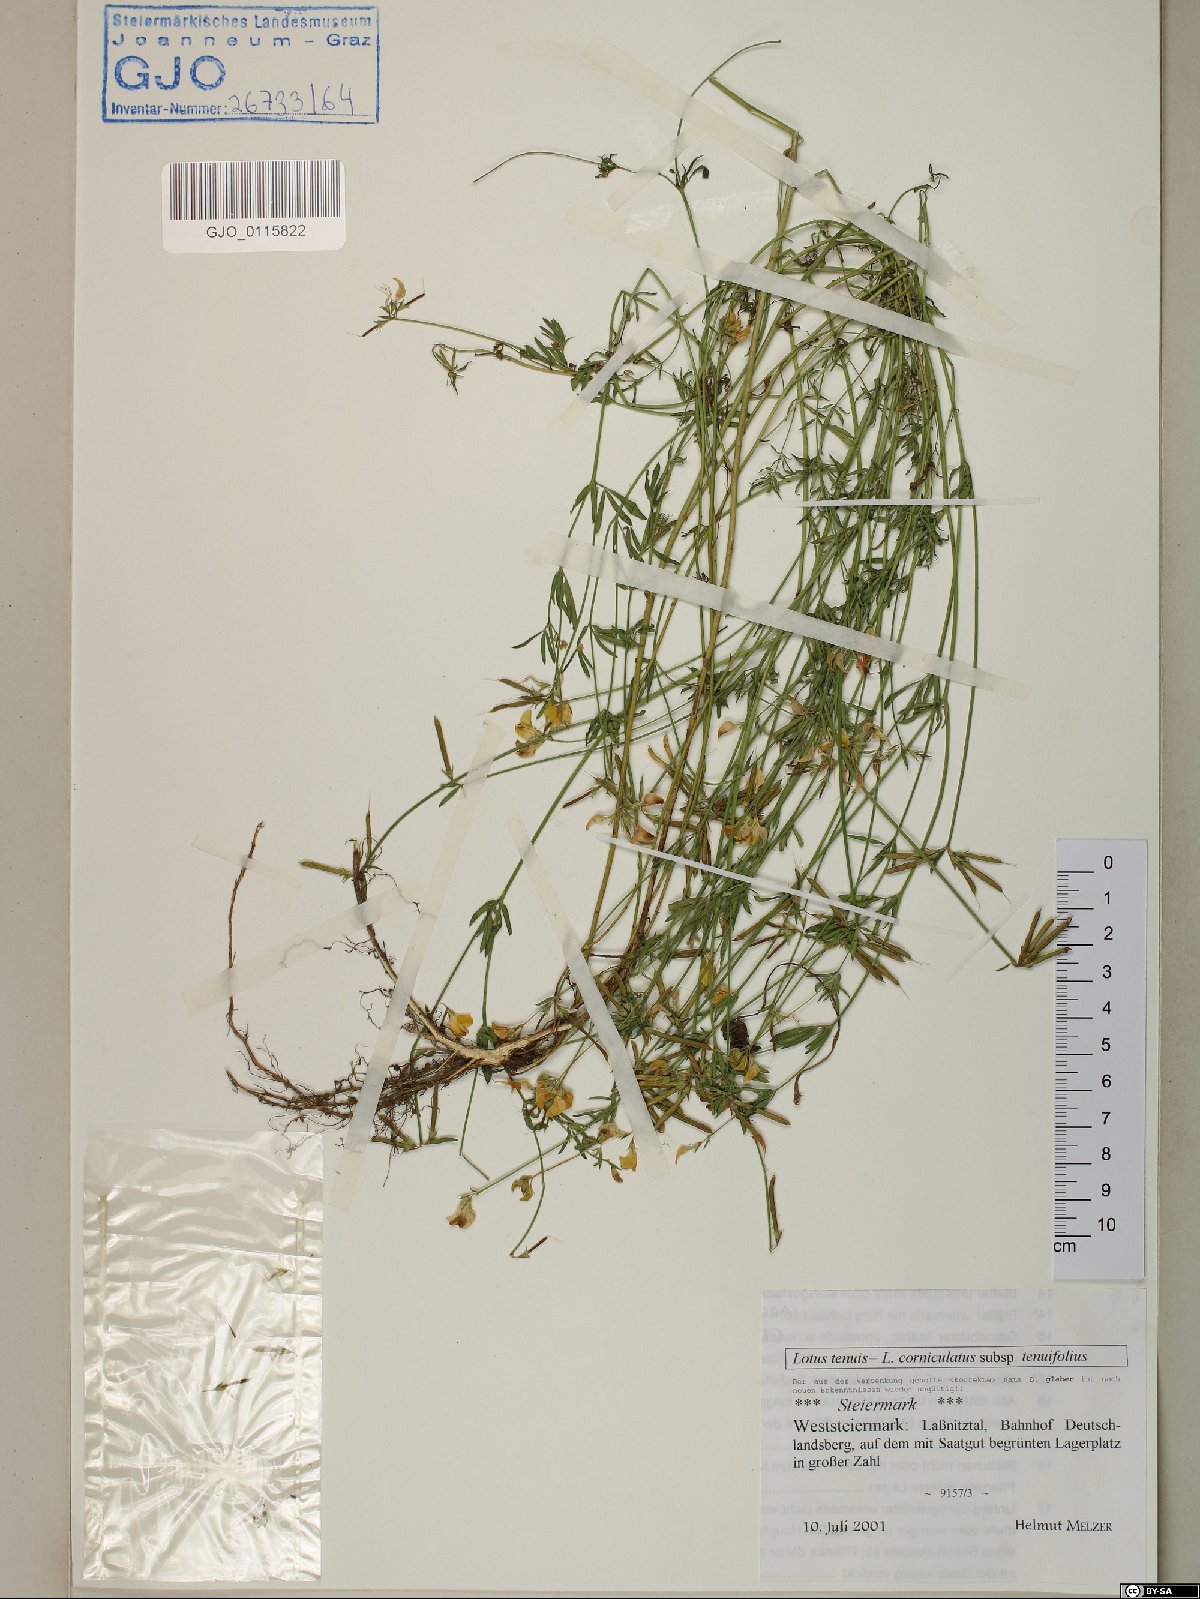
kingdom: Plantae
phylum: Tracheophyta
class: Magnoliopsida
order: Fabales
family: Fabaceae
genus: Lotus
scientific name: Lotus tenuis
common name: Narrow-leaved bird's-foot-trefoil
